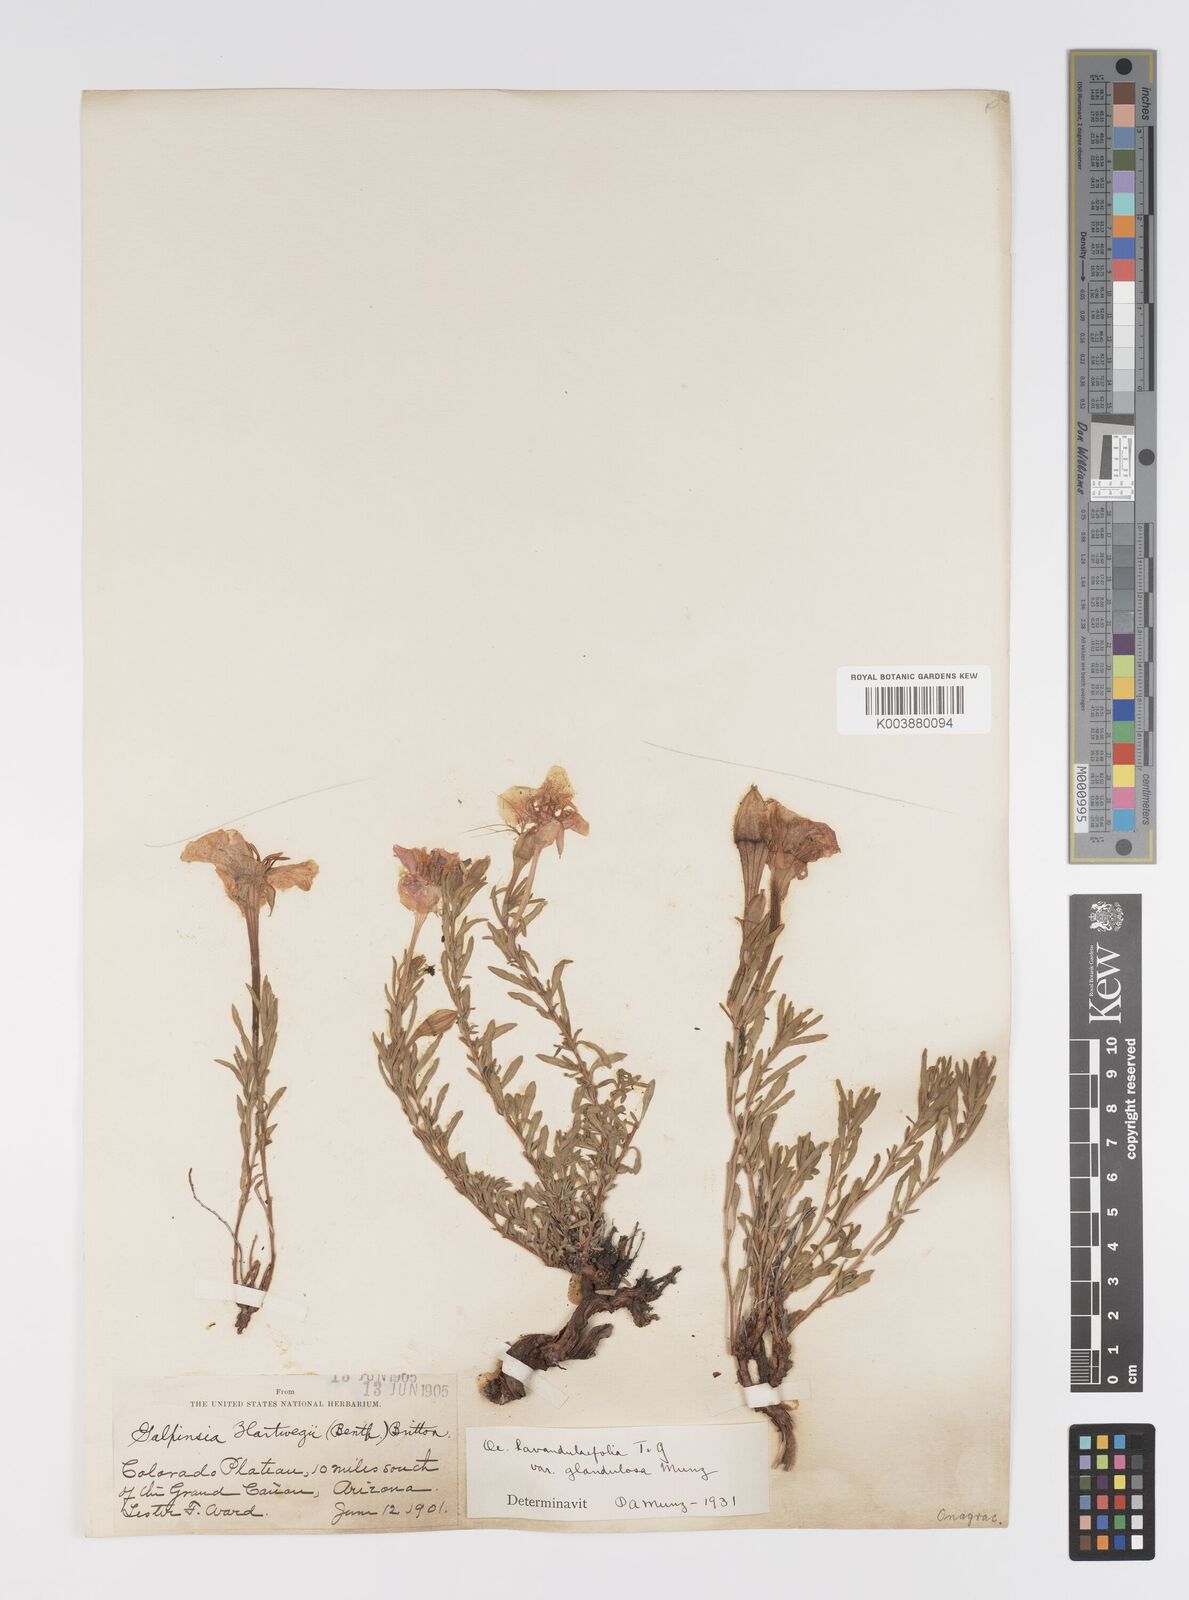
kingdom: Plantae
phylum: Tracheophyta
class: Magnoliopsida
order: Myrtales
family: Onagraceae
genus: Oenothera
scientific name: Oenothera lavandulifolia
